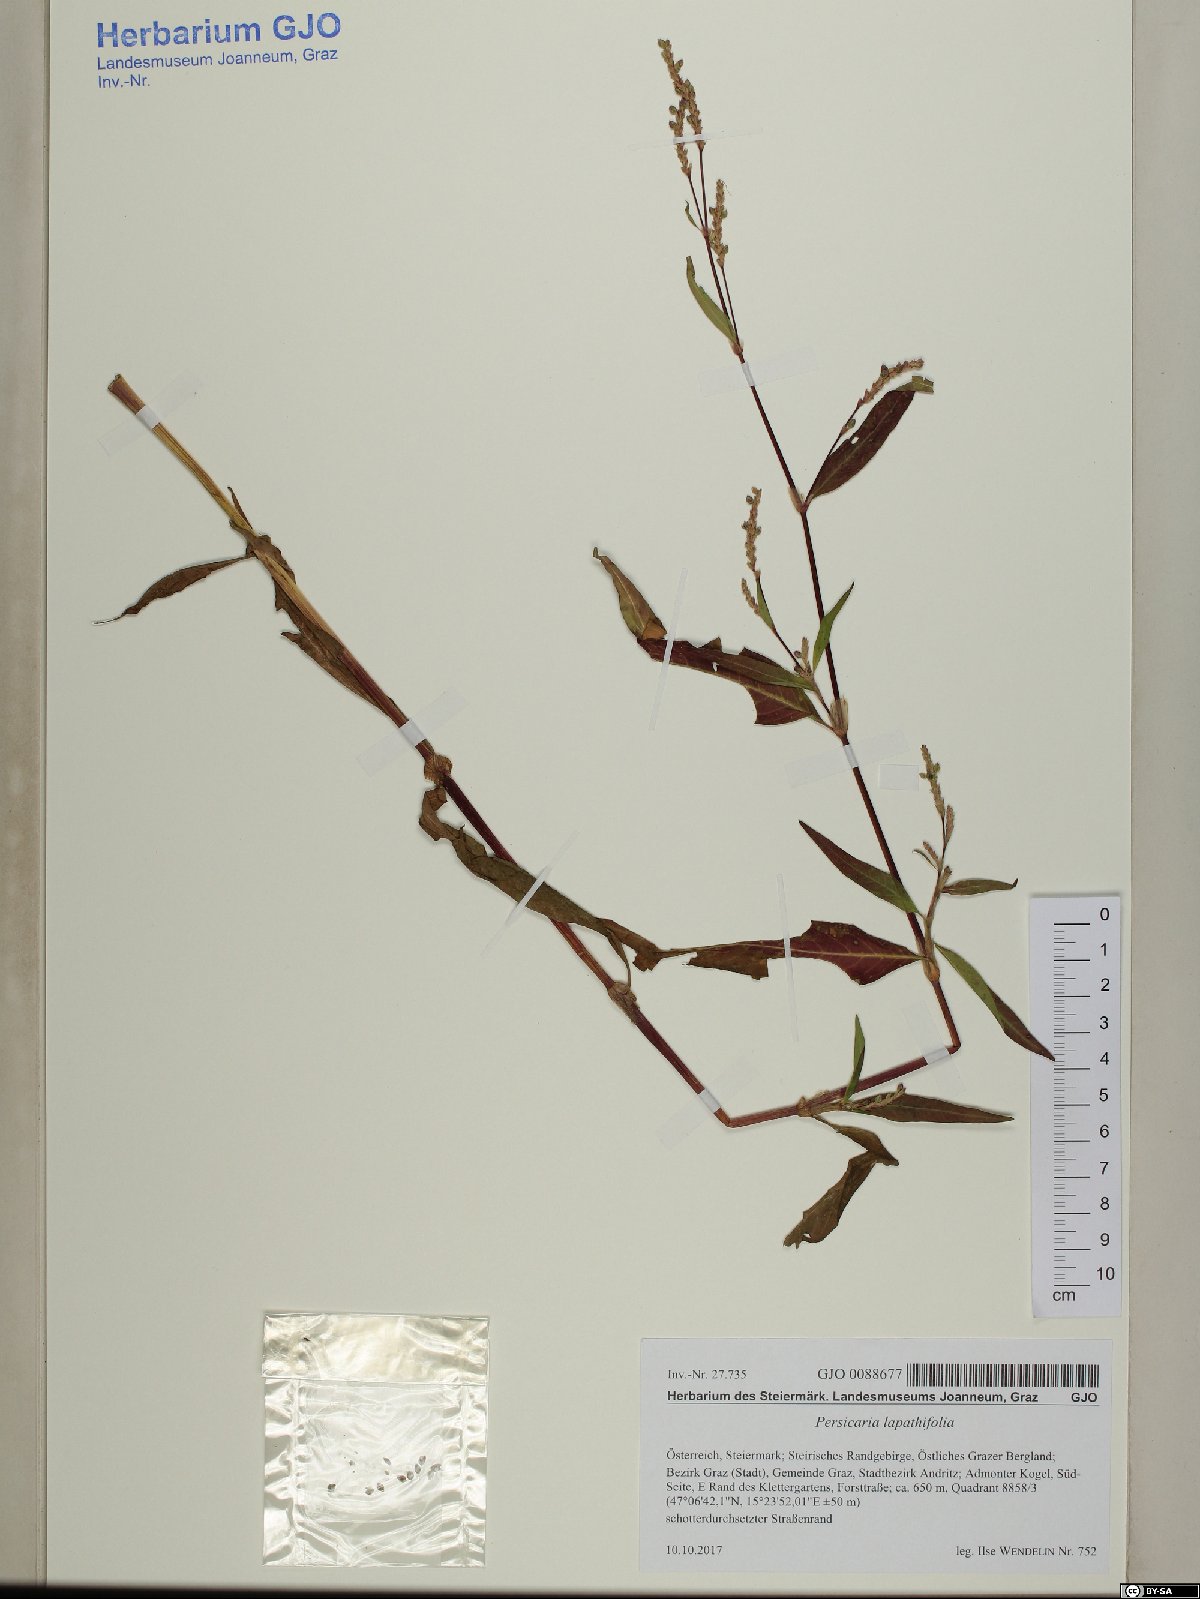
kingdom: Plantae
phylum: Tracheophyta
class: Magnoliopsida
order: Caryophyllales
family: Polygonaceae
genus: Persicaria
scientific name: Persicaria mitis
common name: Tasteless water-pepper
